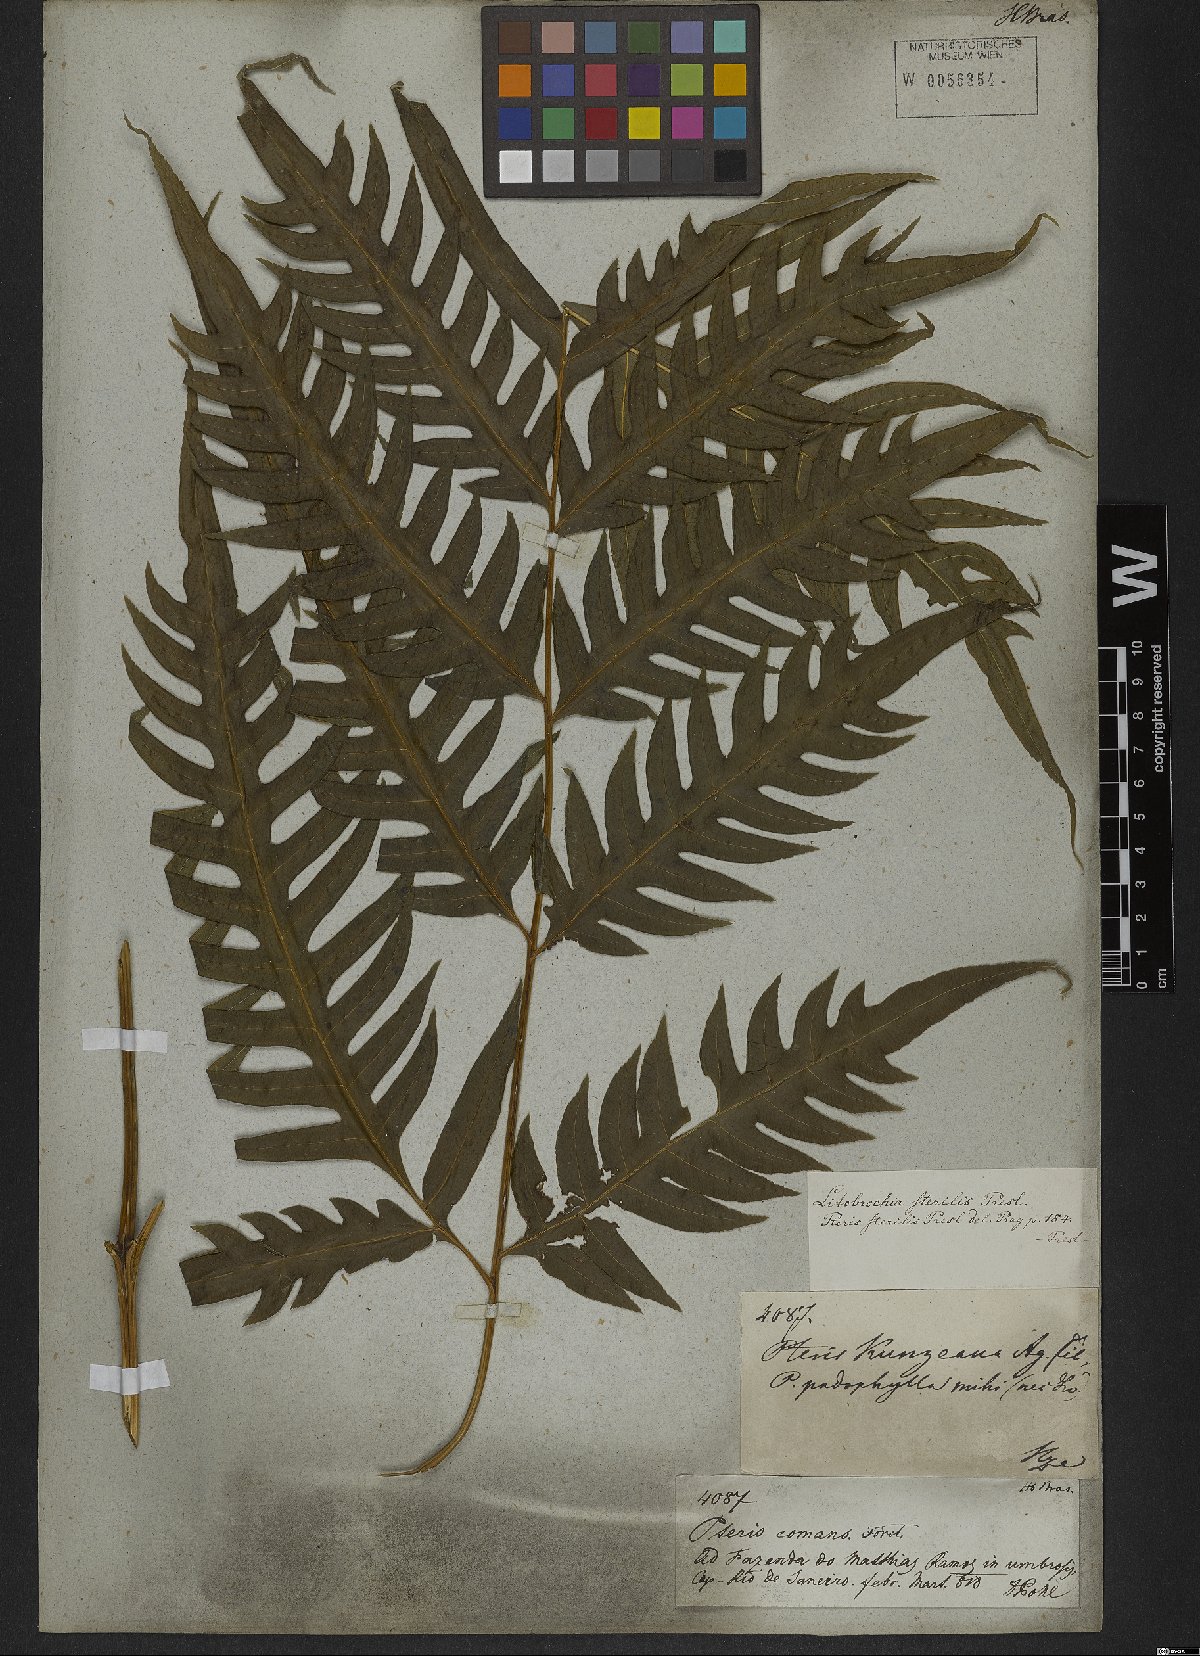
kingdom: Plantae
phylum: Tracheophyta
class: Polypodiopsida
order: Polypodiales
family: Pteridaceae
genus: Pteris
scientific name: Pteris altissima
